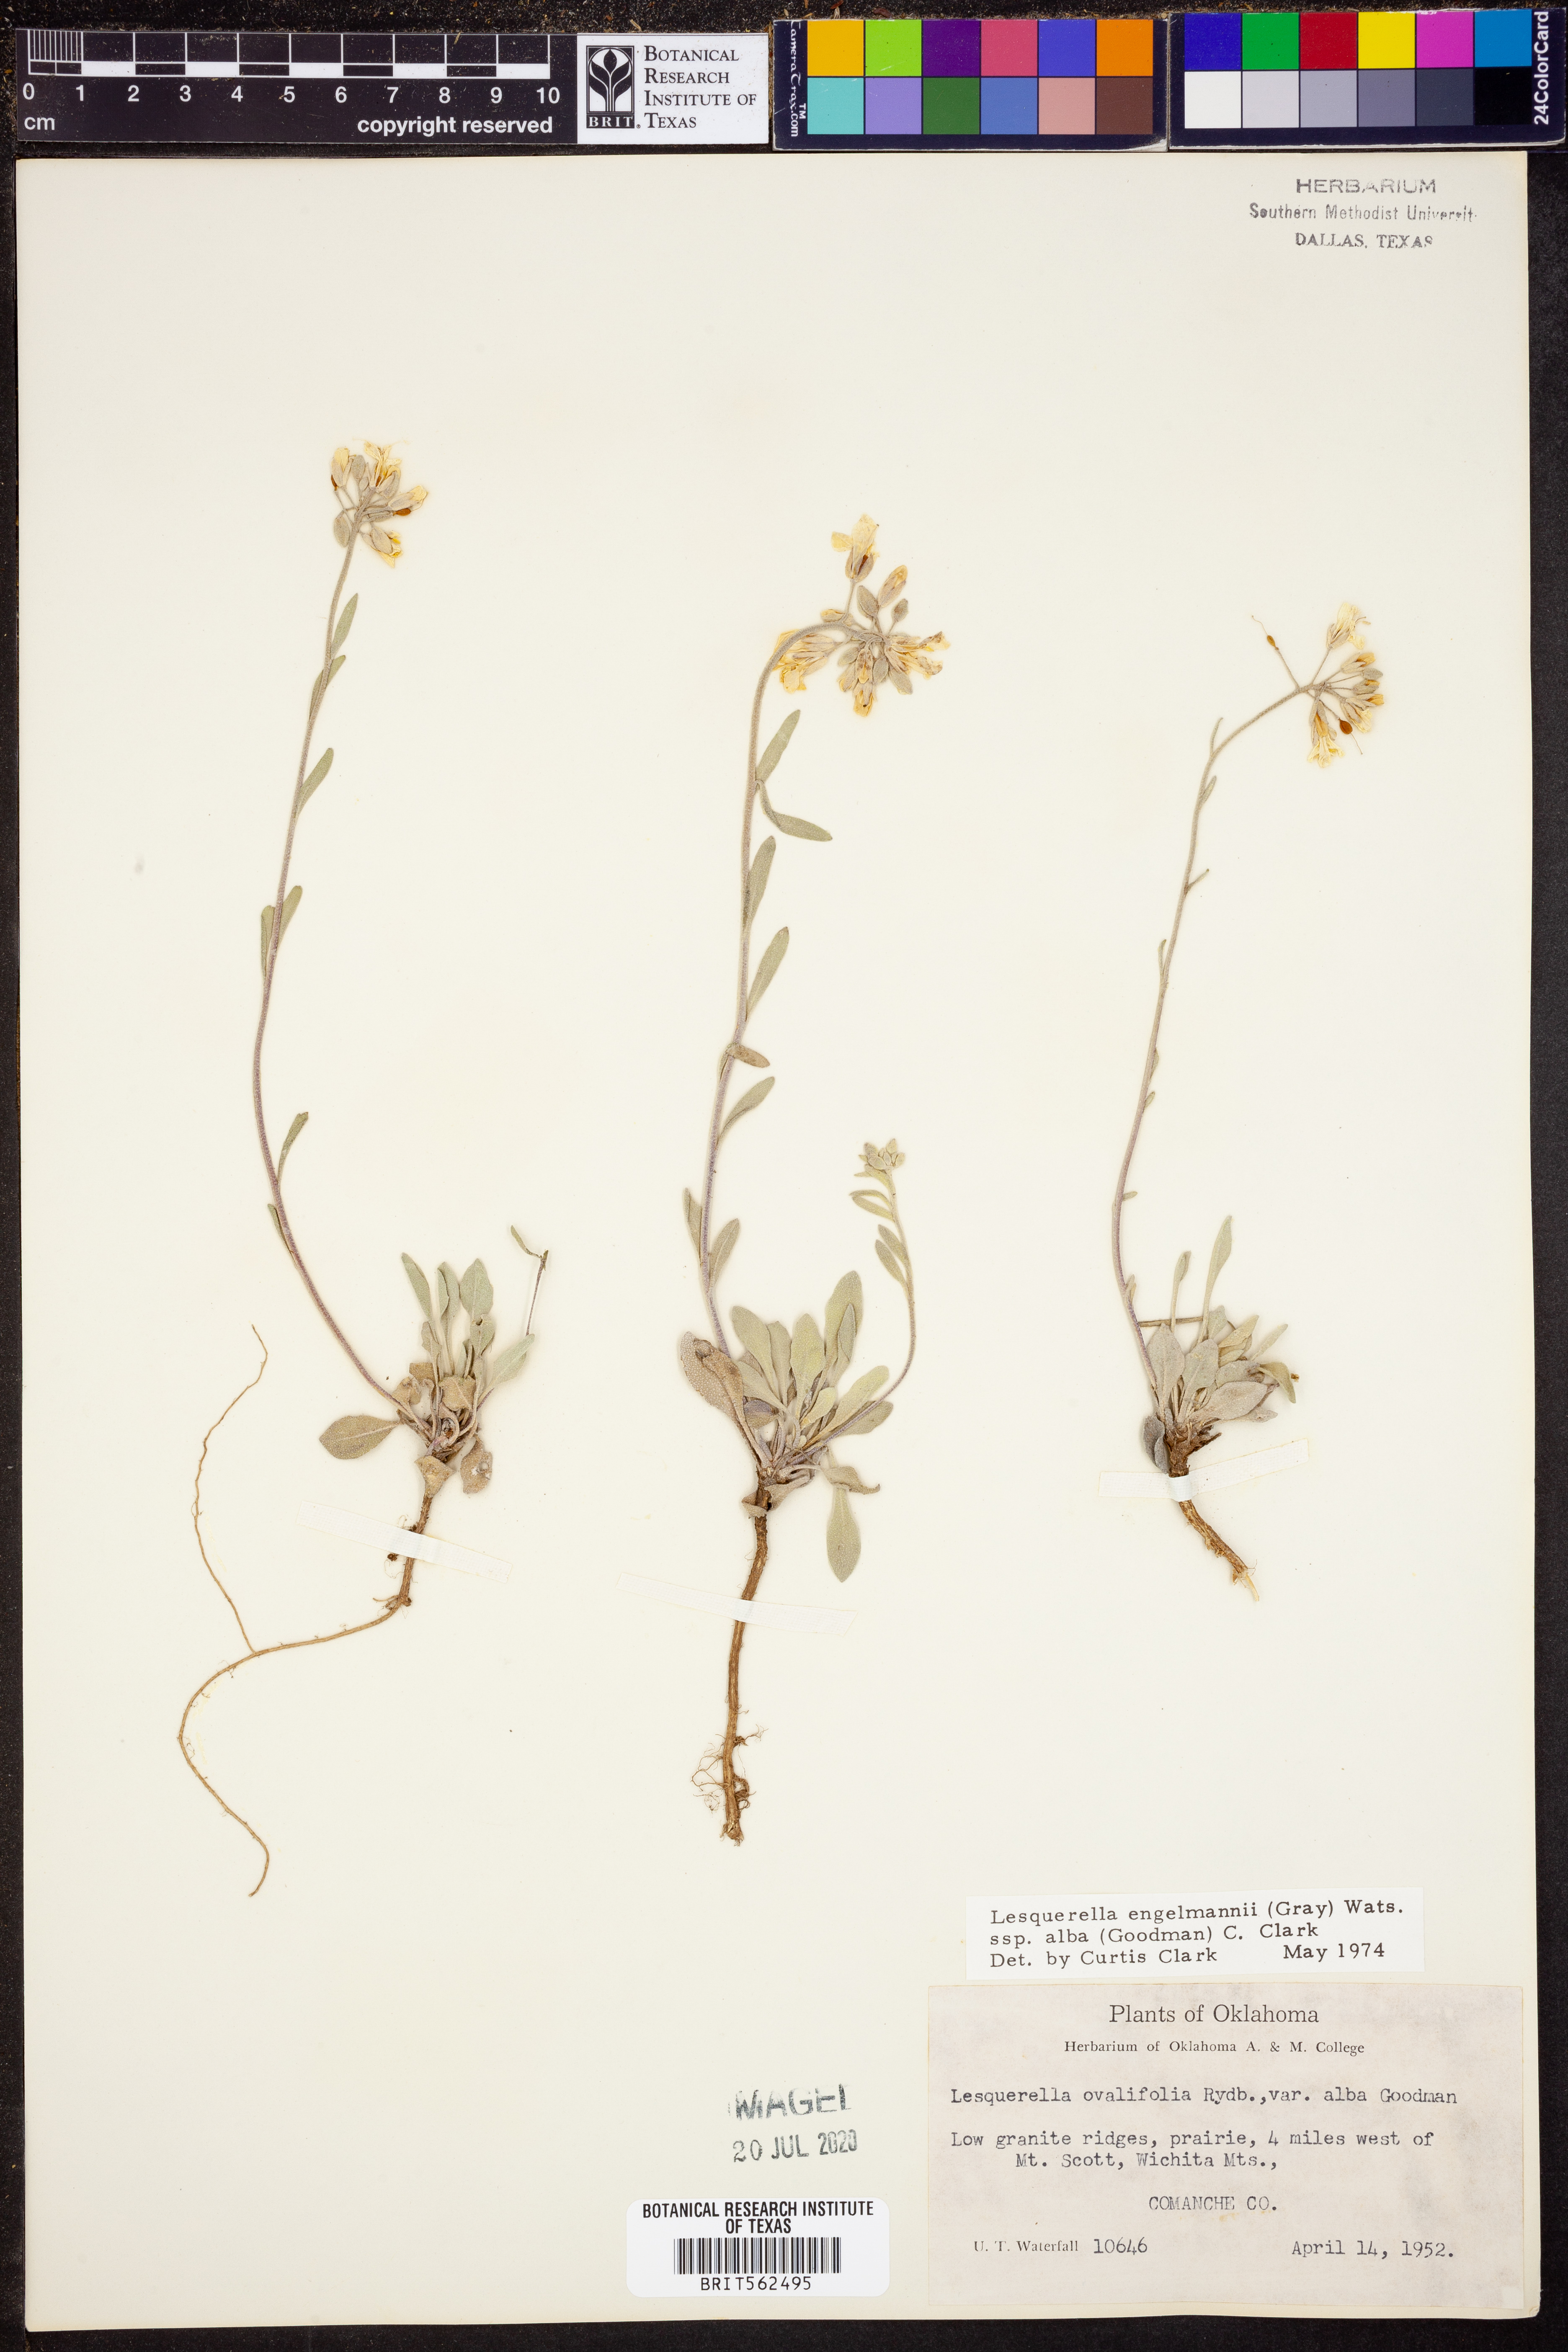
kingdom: Plantae
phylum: Tracheophyta
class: Magnoliopsida
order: Brassicales
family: Brassicaceae
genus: Physaria
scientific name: Physaria ovalifolia
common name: Round-leaf bladderpod
